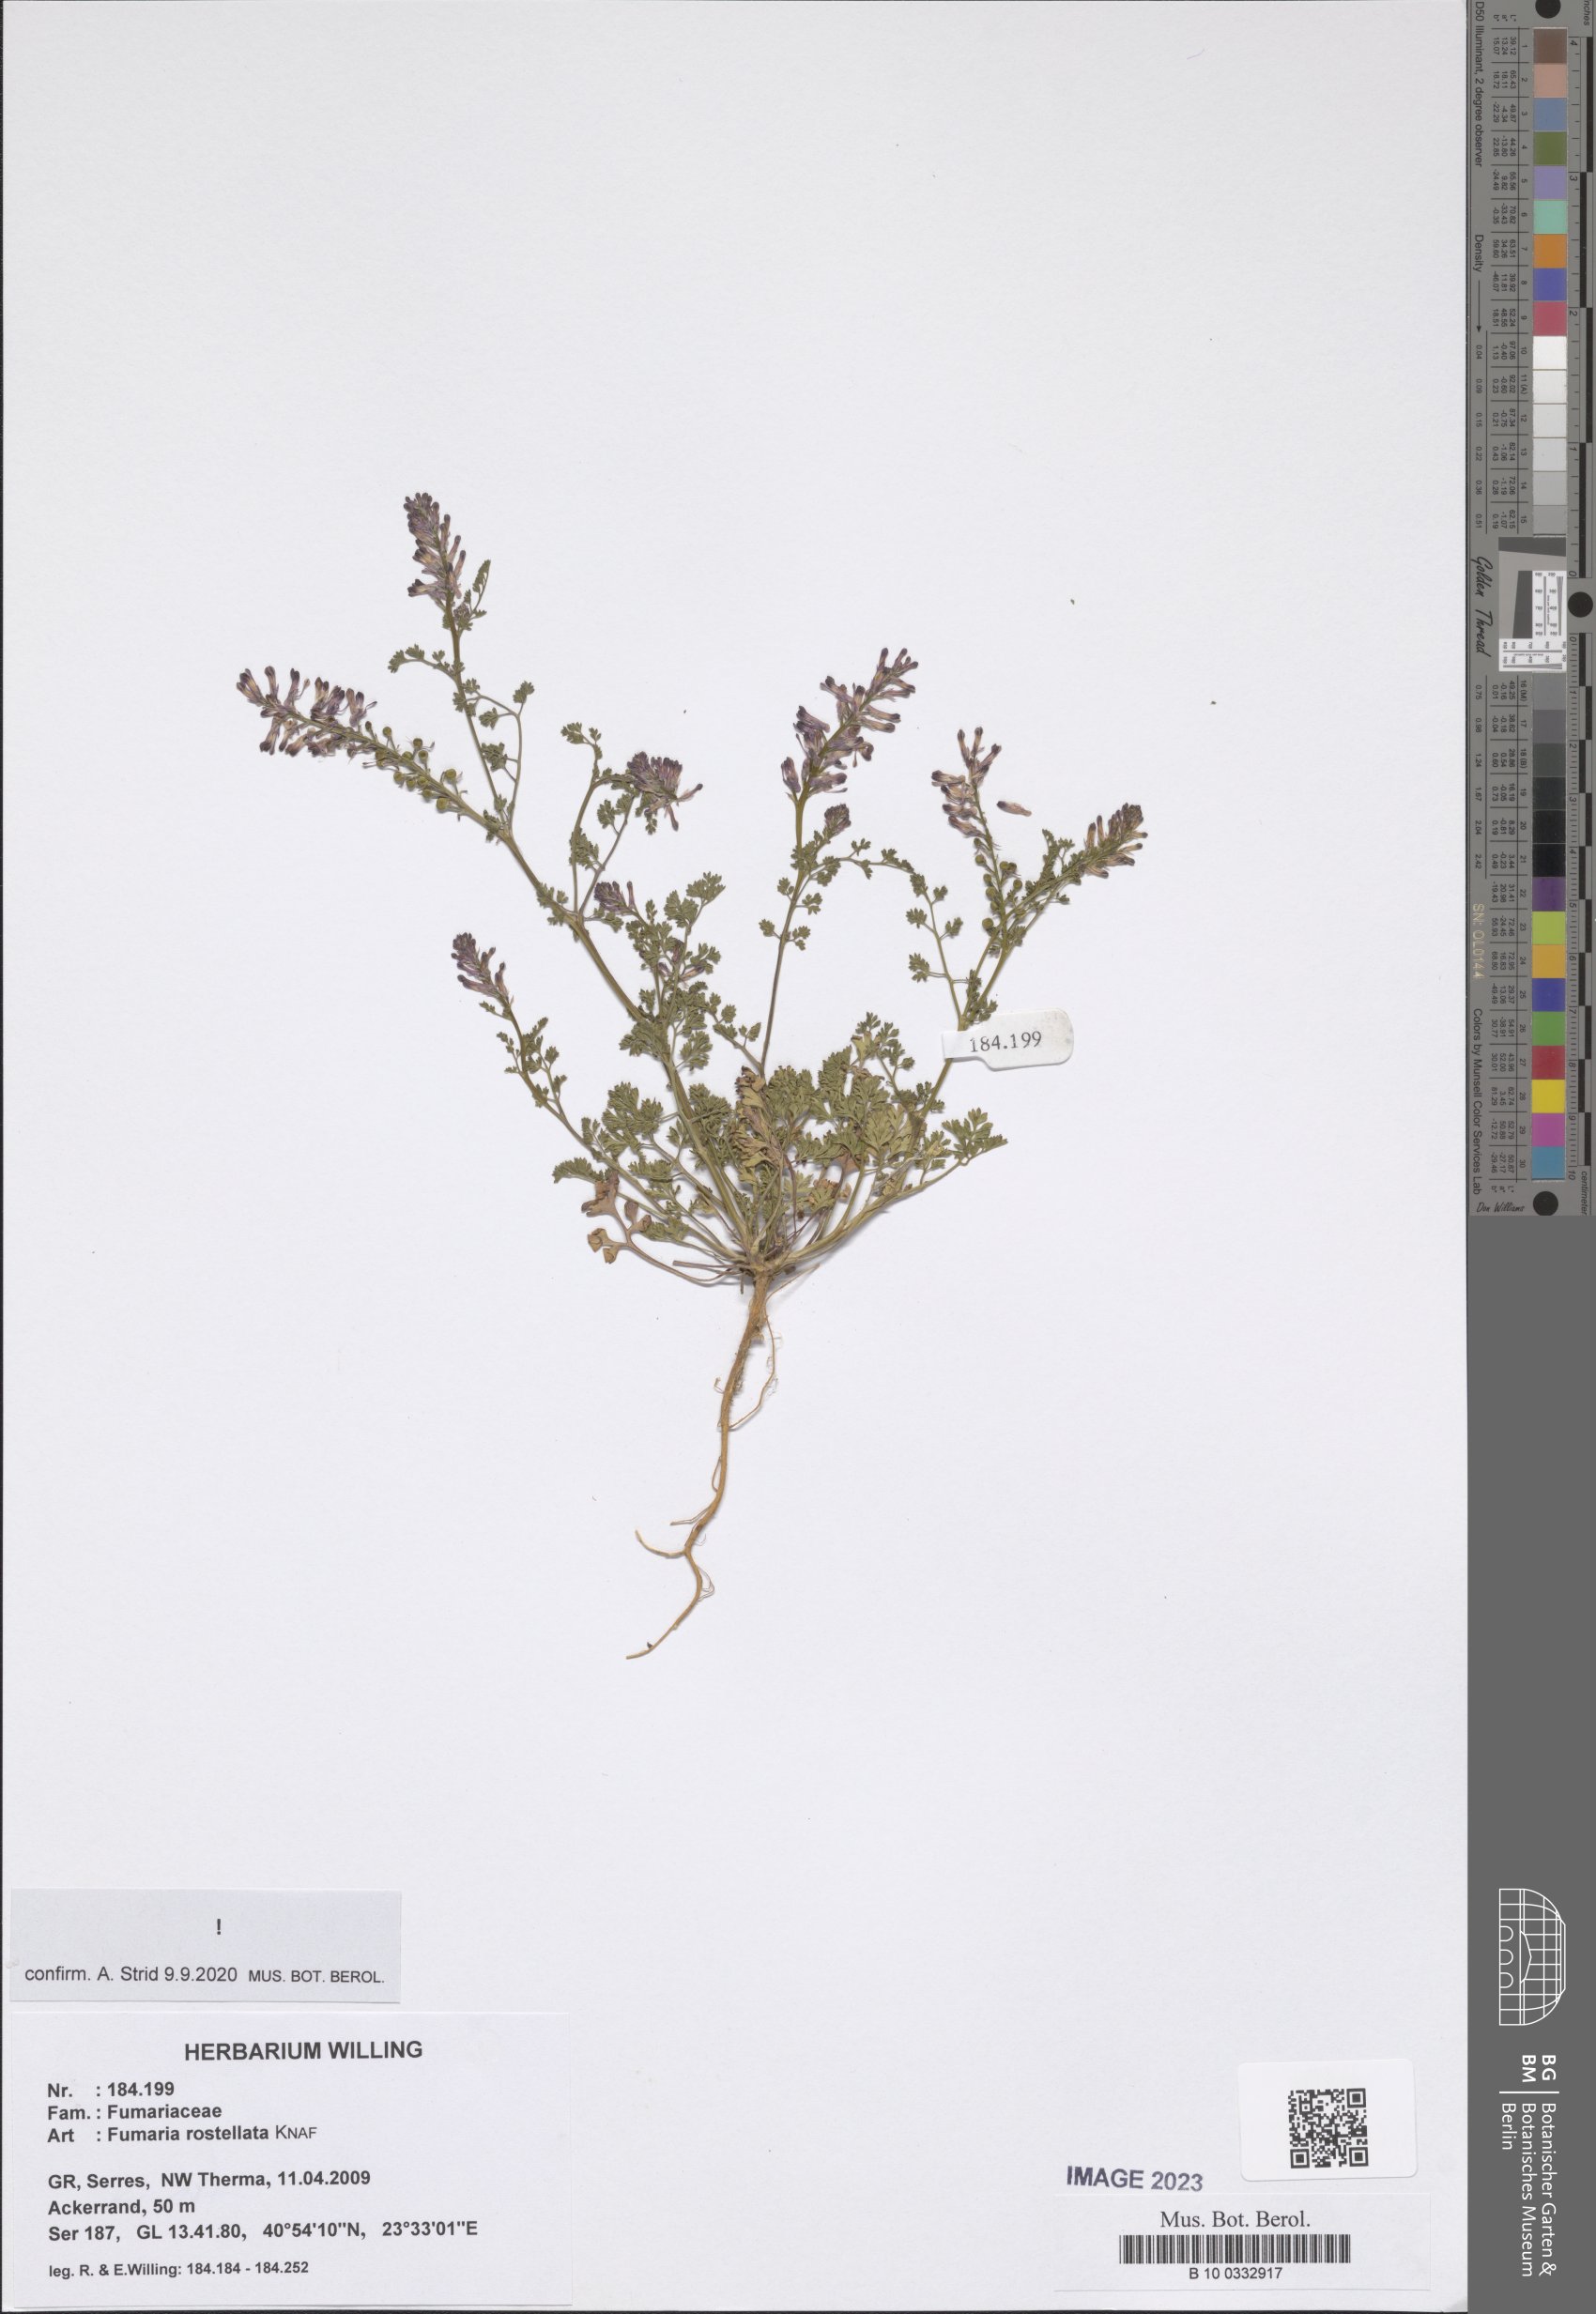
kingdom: Plantae
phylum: Tracheophyta
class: Magnoliopsida
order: Ranunculales
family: Papaveraceae
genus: Fumaria
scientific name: Fumaria rostellata
